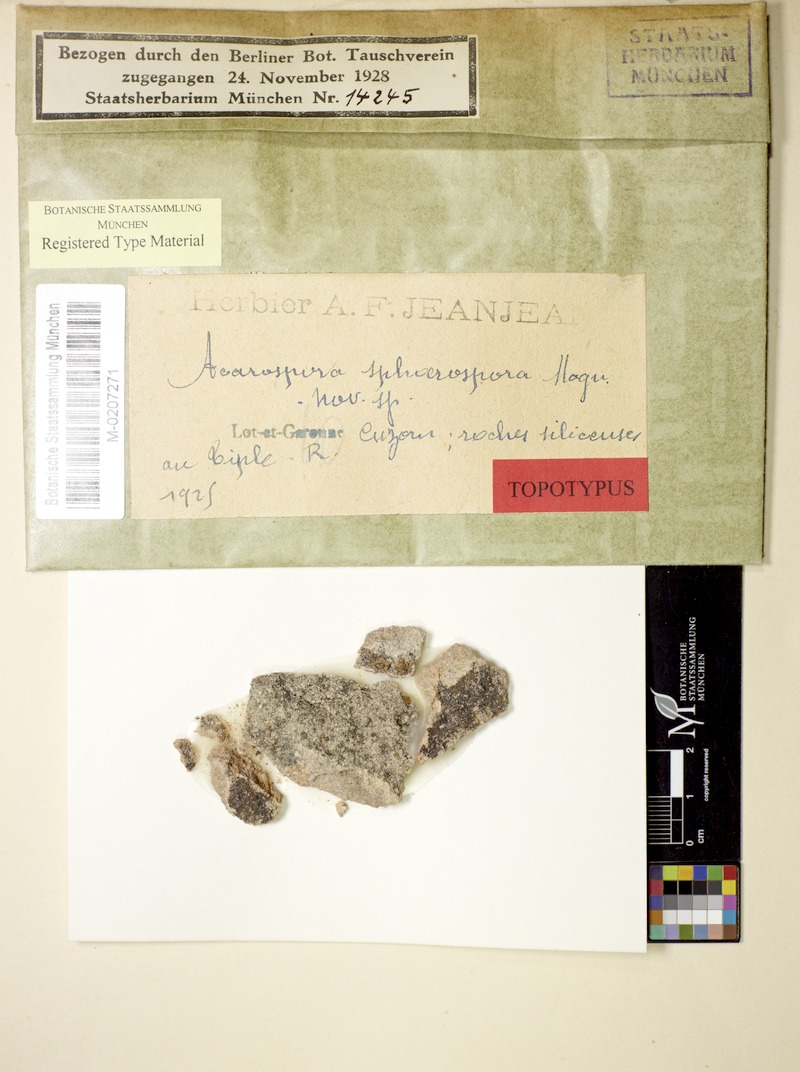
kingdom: Fungi
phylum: Ascomycota
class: Lecanoromycetes
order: Acarosporales
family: Acarosporaceae
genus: Acarospora
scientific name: Acarospora sphaerospora
